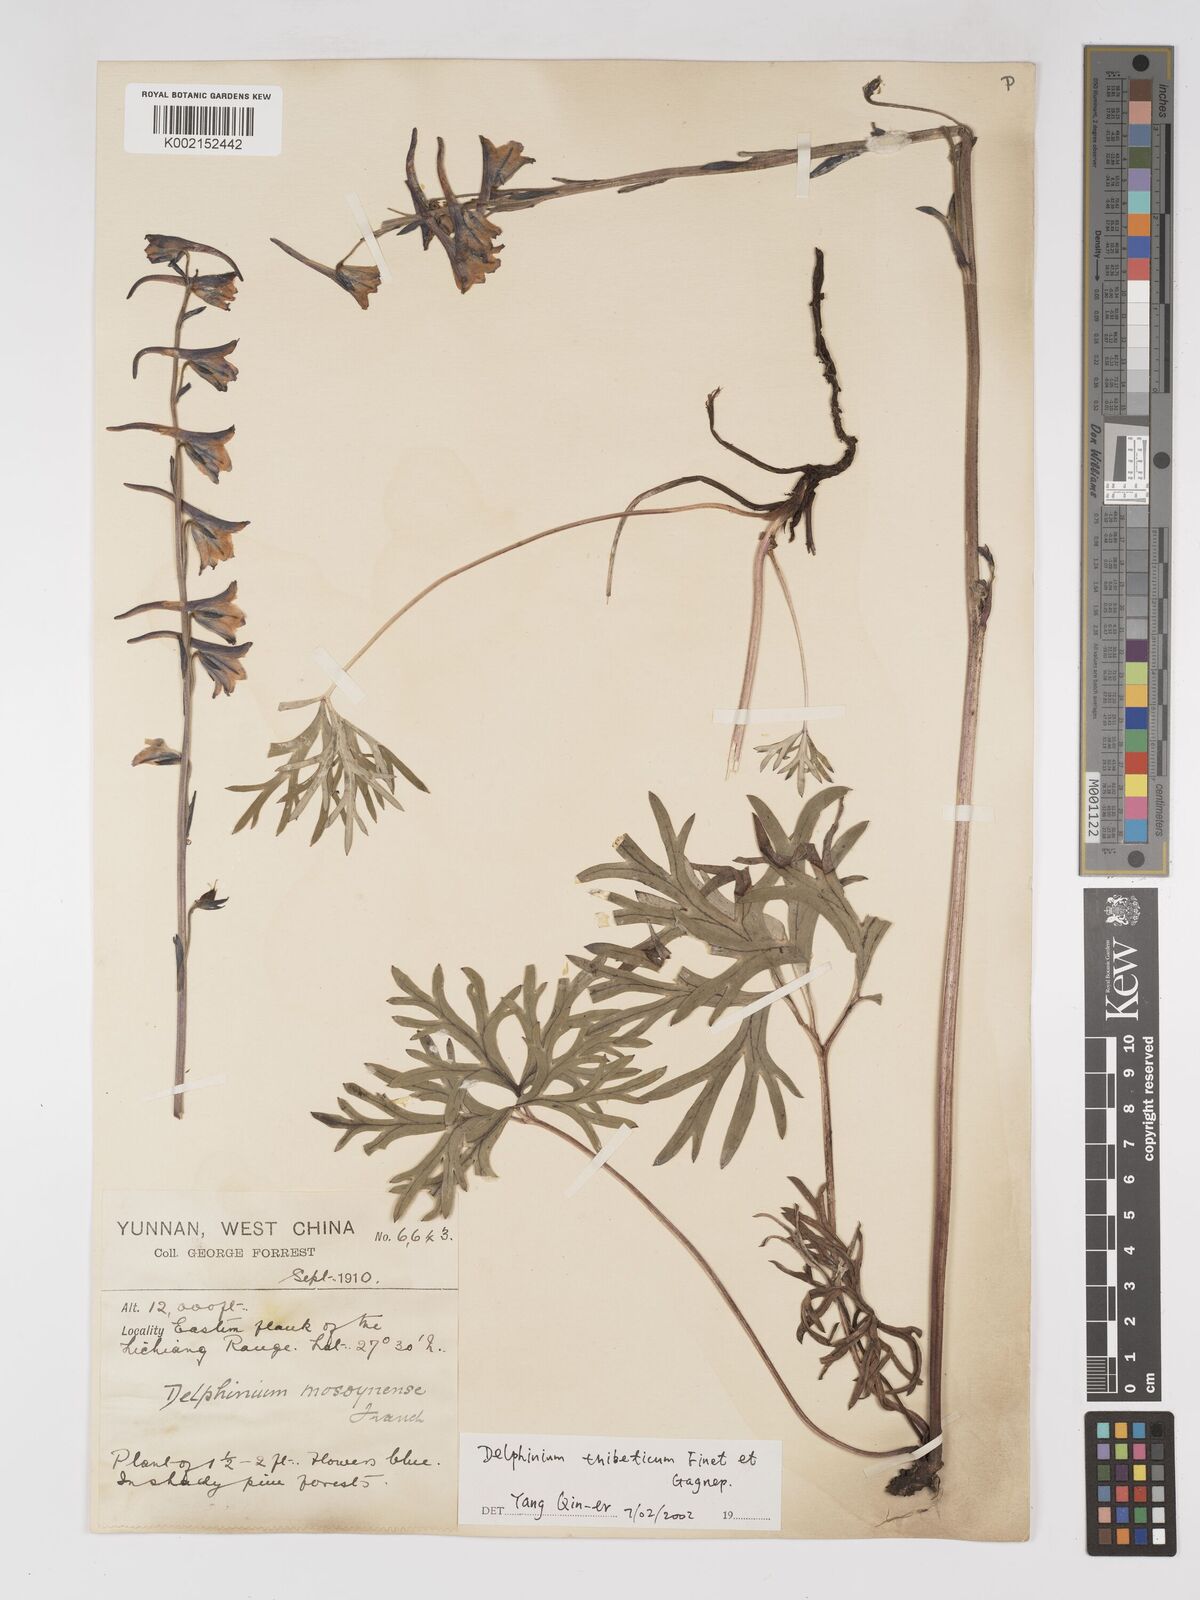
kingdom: Plantae
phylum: Tracheophyta
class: Magnoliopsida
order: Ranunculales
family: Ranunculaceae
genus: Delphinium
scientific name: Delphinium thibeticum
